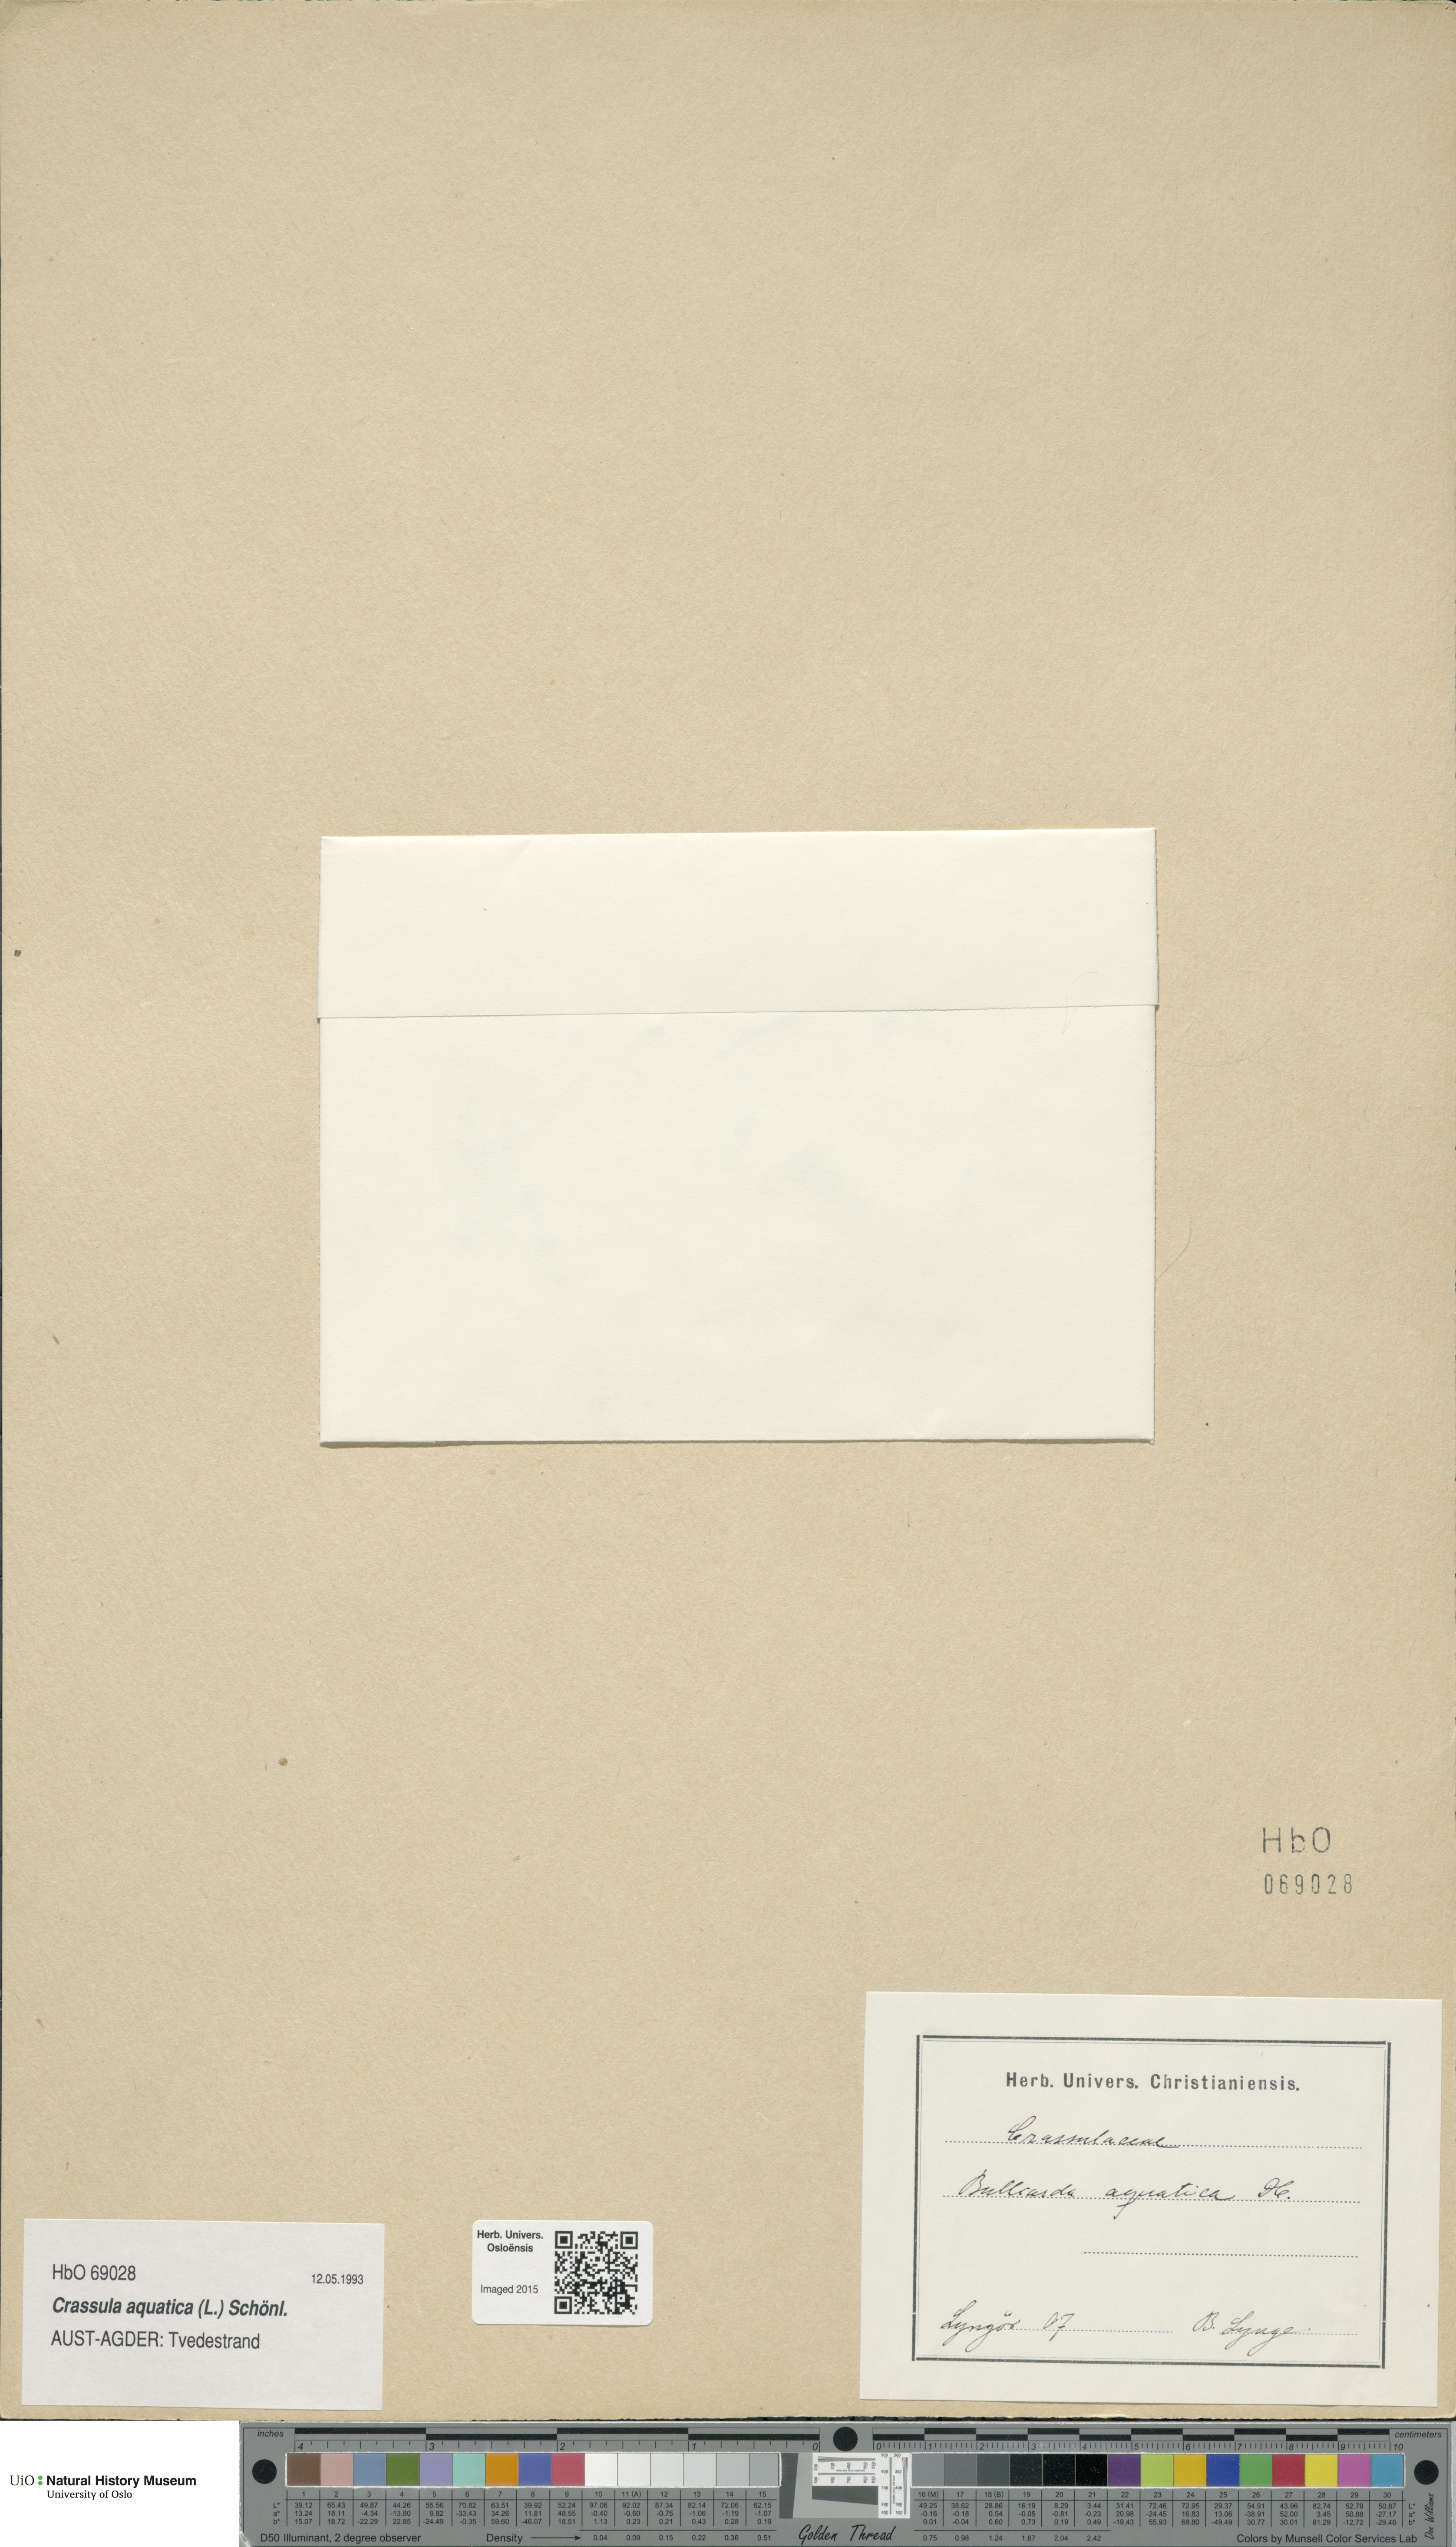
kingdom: Plantae
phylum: Tracheophyta
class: Magnoliopsida
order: Saxifragales
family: Crassulaceae
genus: Crassula
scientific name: Crassula aquatica
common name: Pigmyweed
